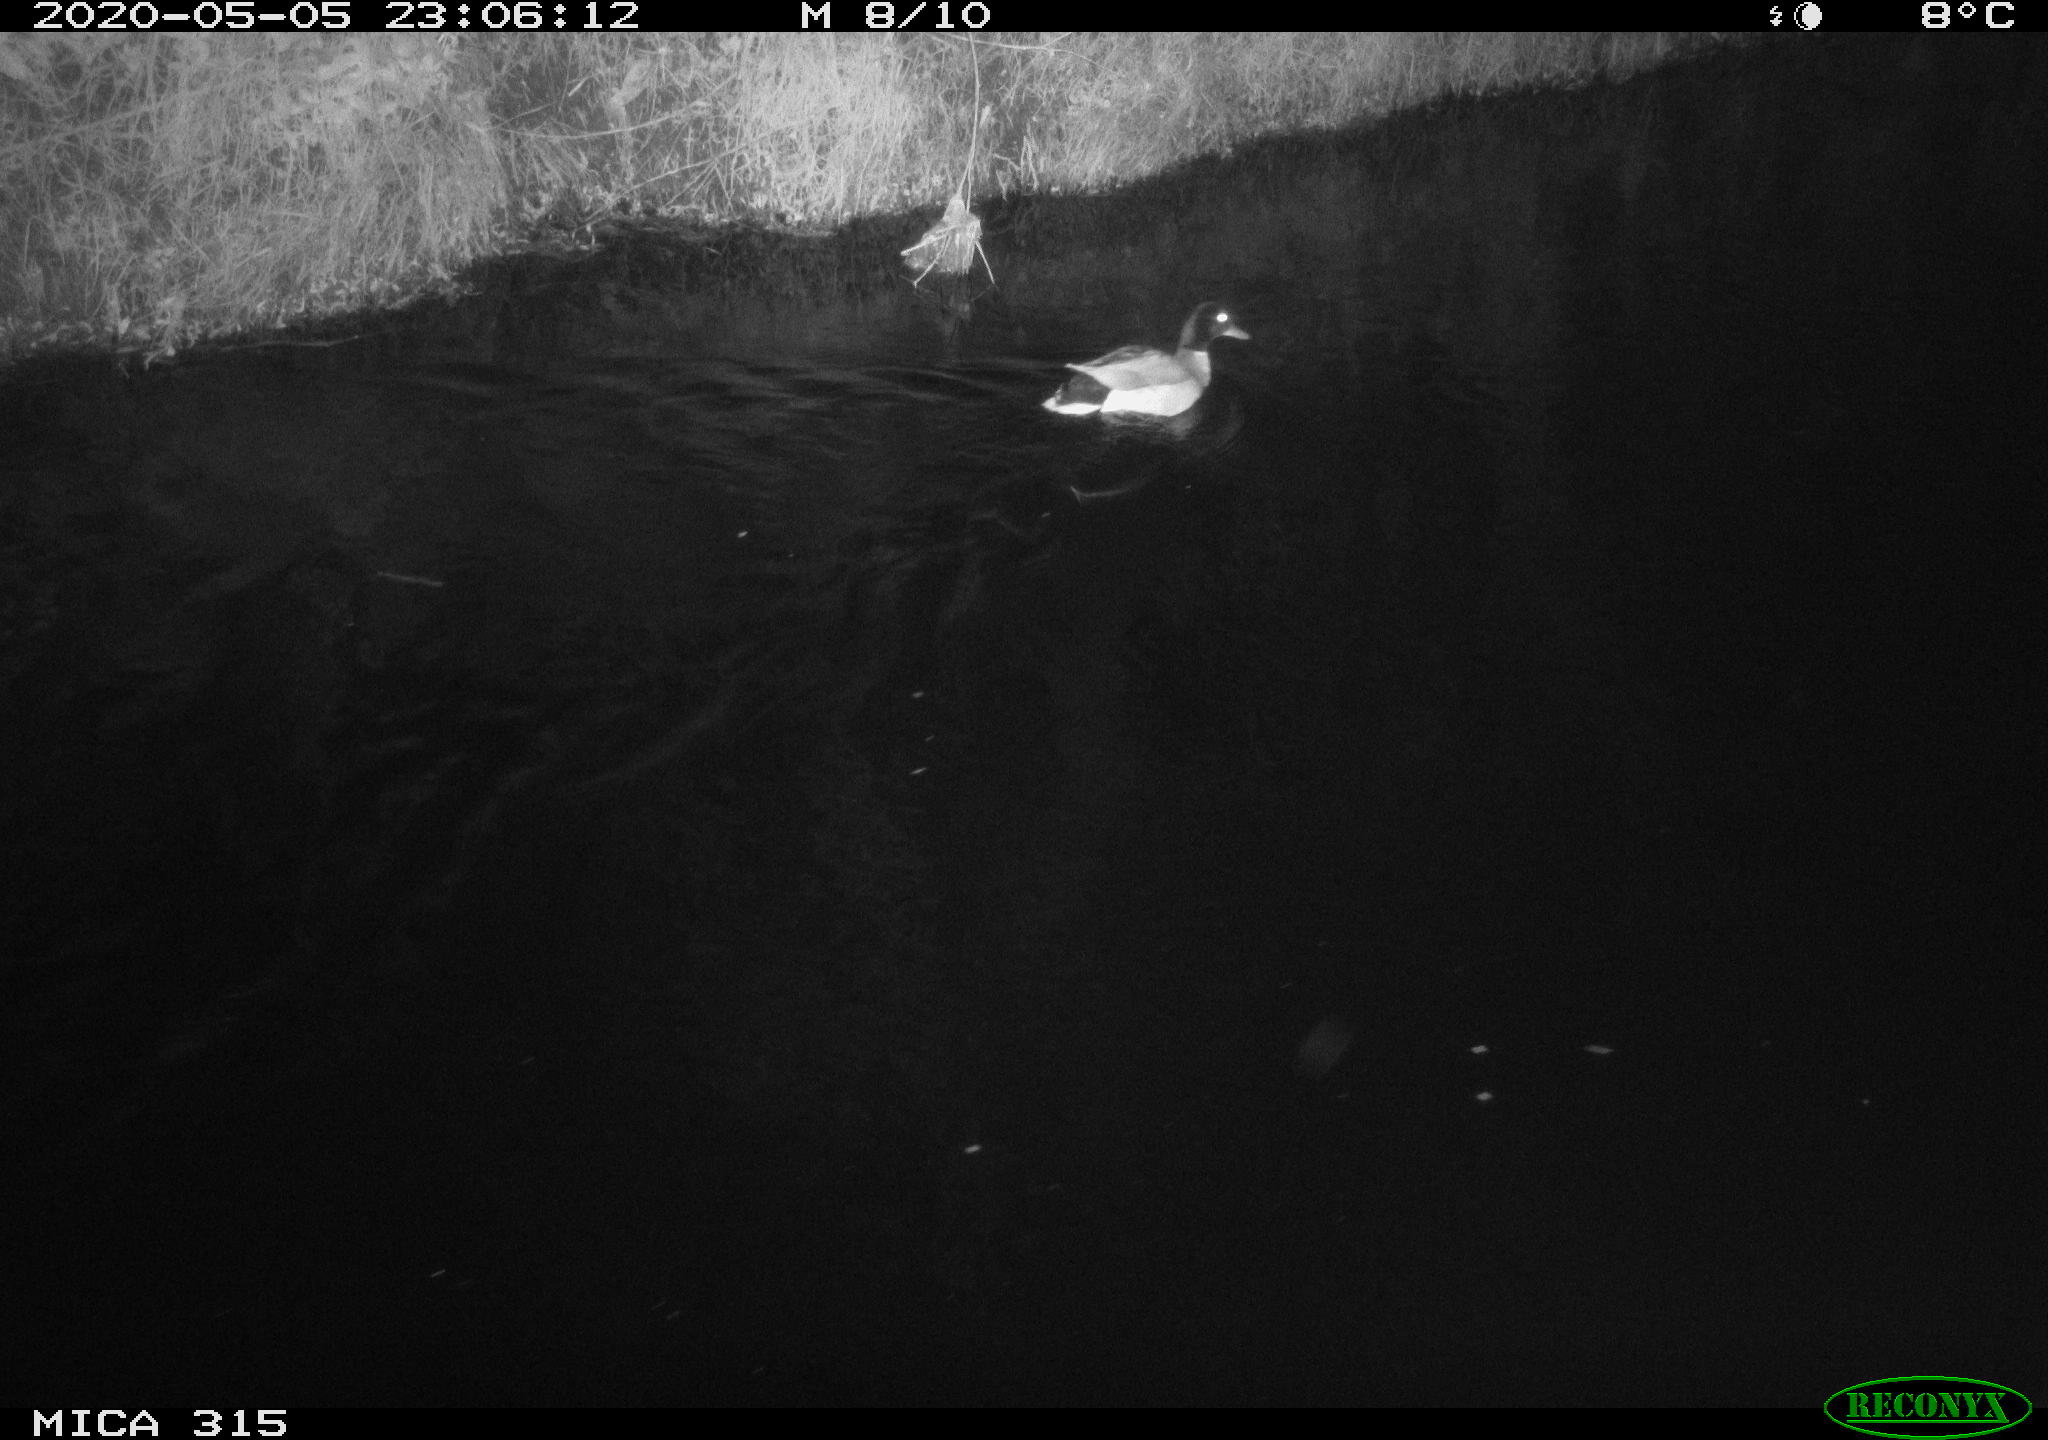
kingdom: Animalia
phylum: Chordata
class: Aves
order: Anseriformes
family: Anatidae
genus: Anas
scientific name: Anas platyrhynchos
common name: Mallard
